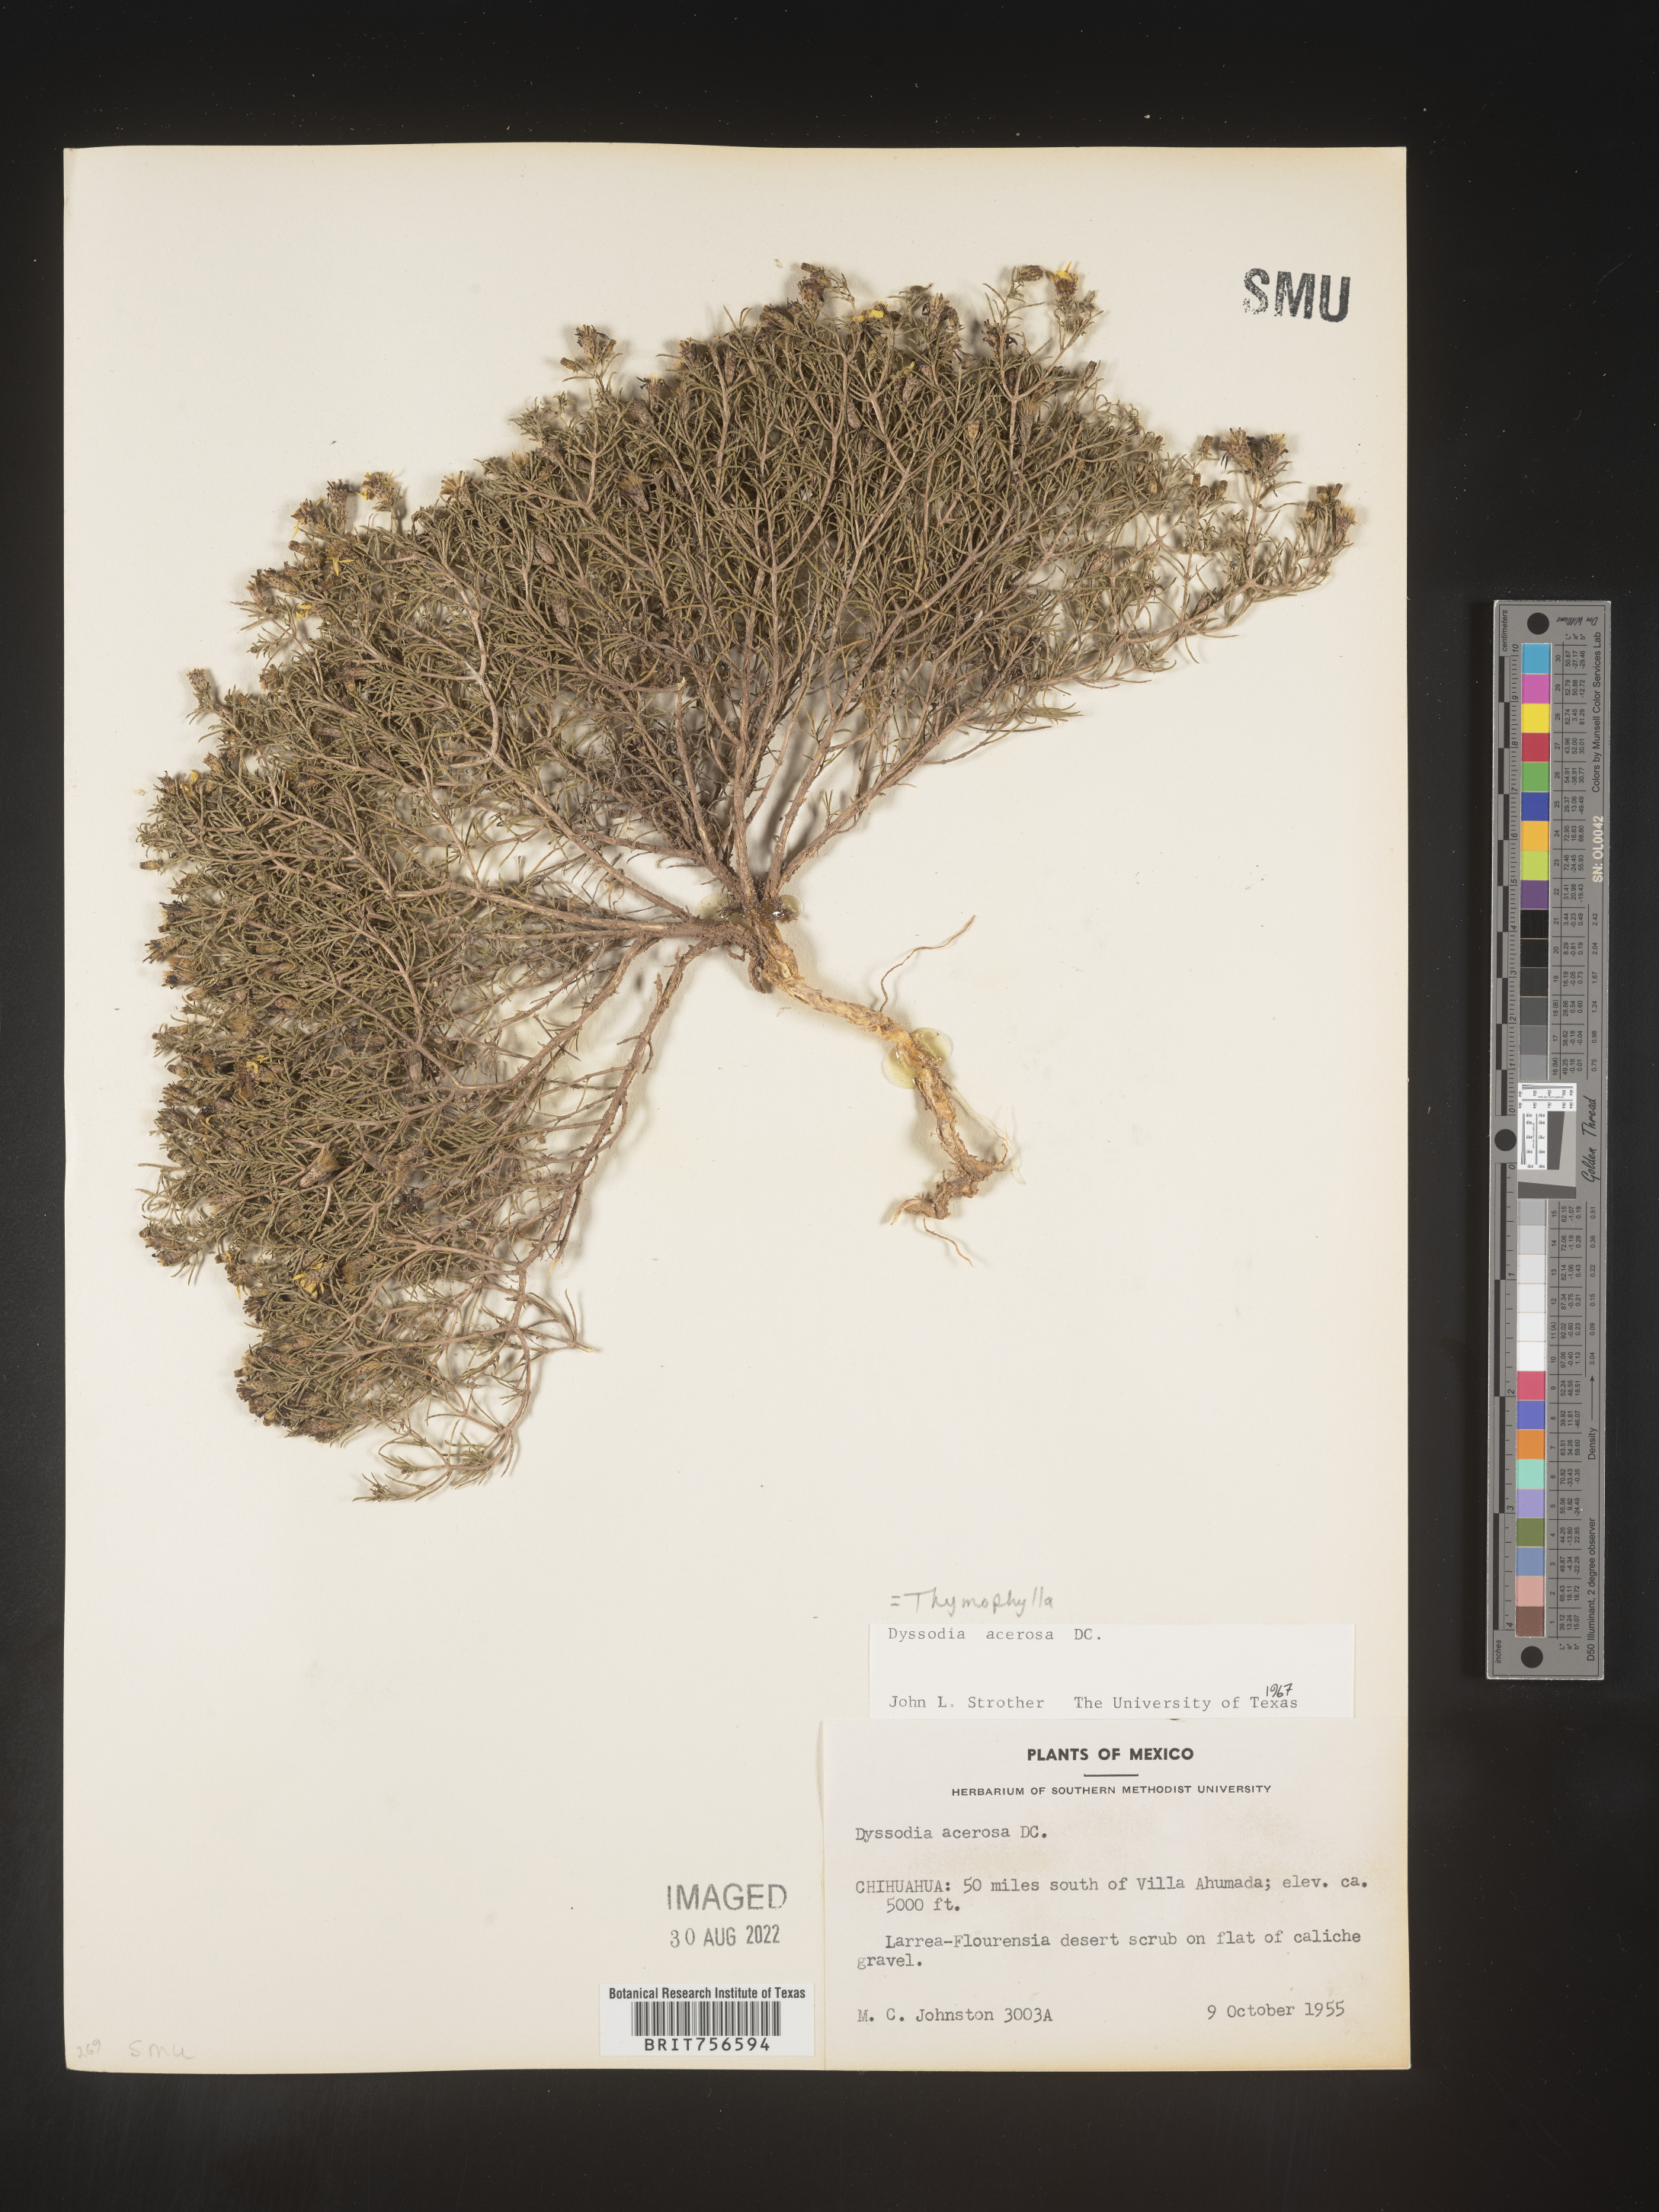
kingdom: Plantae
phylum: Tracheophyta
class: Magnoliopsida
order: Asterales
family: Asteraceae
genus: Thymophylla
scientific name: Thymophylla acerosa
